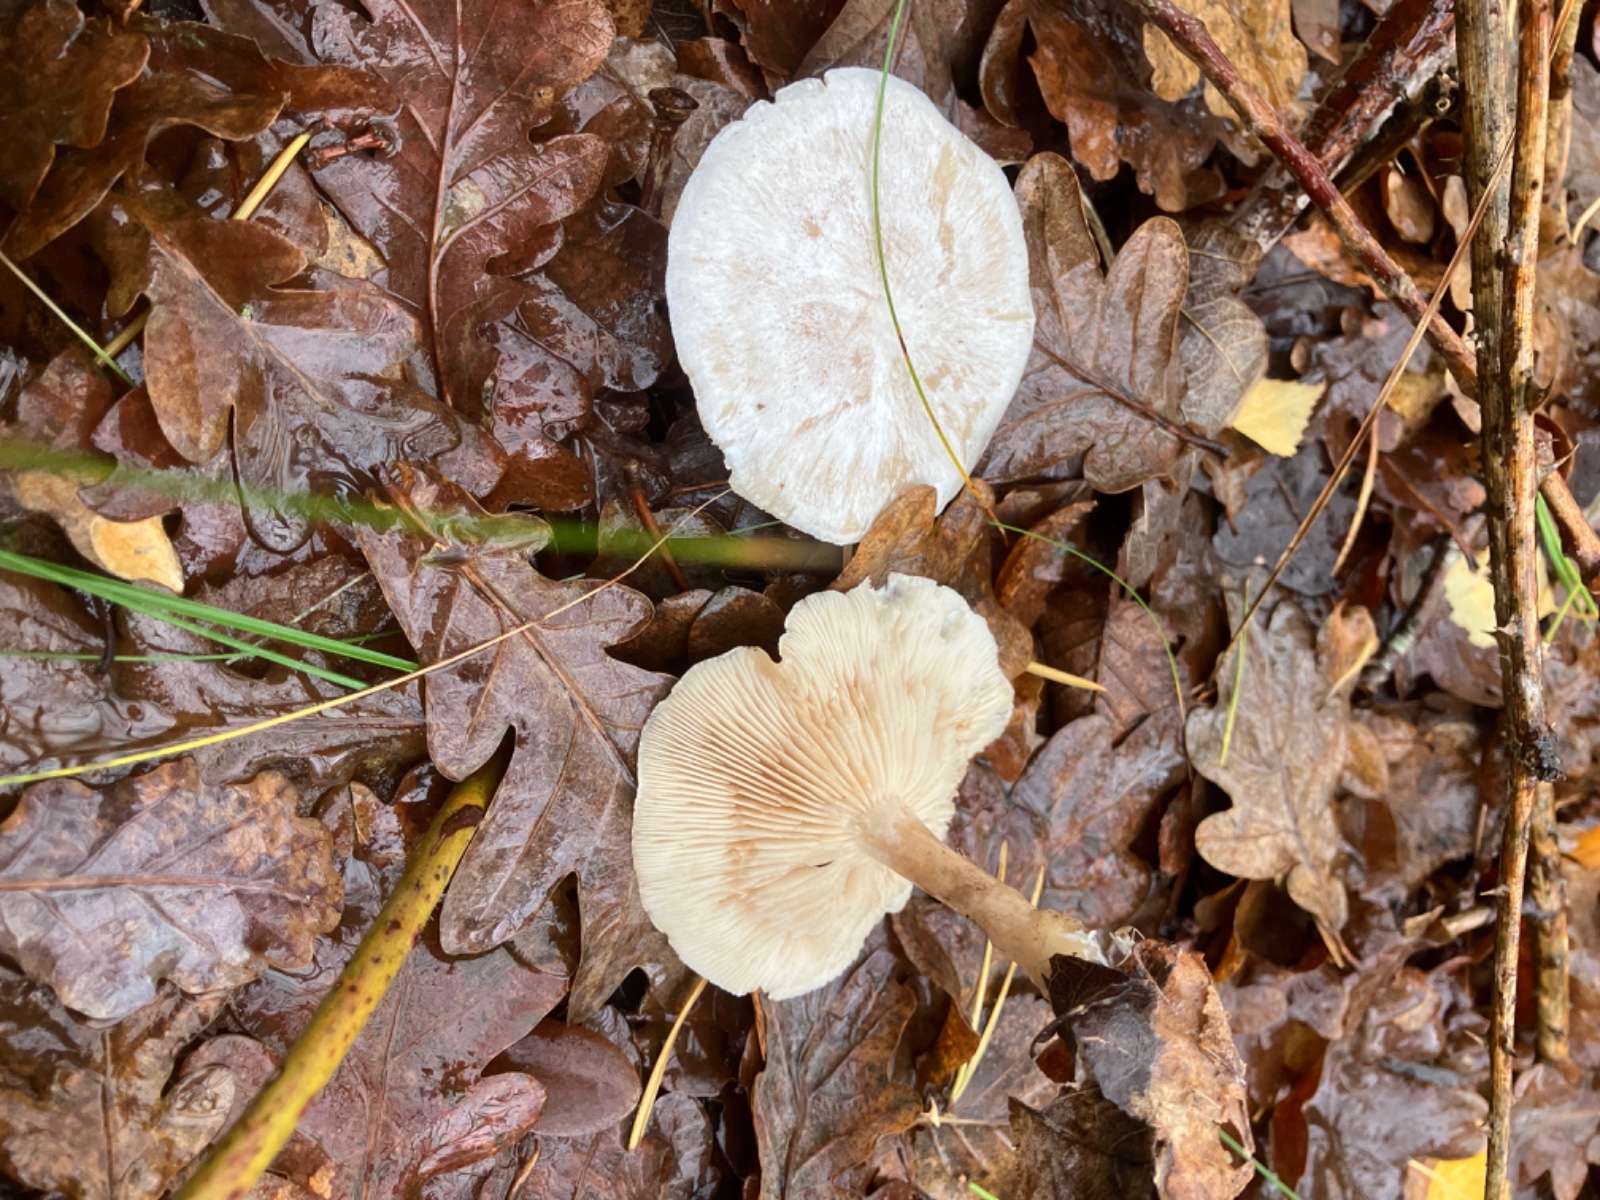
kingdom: Fungi
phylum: Basidiomycota
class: Agaricomycetes
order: Agaricales
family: Tricholomataceae
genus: Clitocybe
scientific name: Clitocybe phyllophila
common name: løv-tragthat
